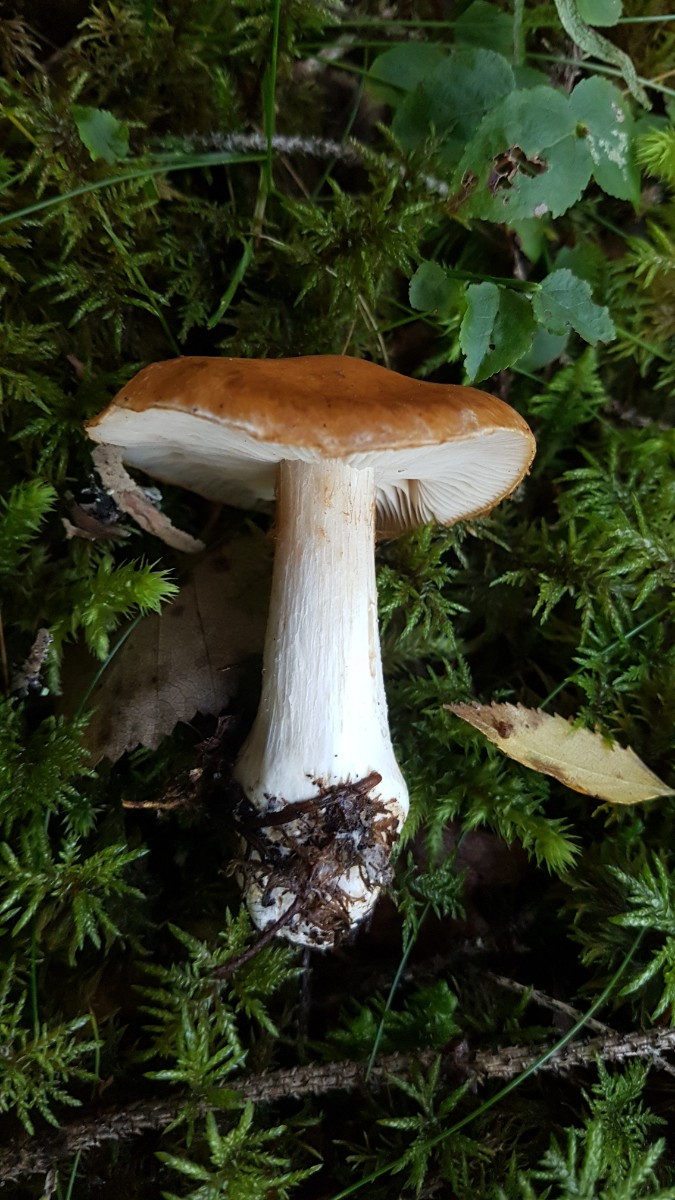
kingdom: Fungi
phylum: Basidiomycota
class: Agaricomycetes
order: Agaricales
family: Cortinariaceae
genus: Thaxterogaster
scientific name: Thaxterogaster multiformis
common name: honning-slørhat
